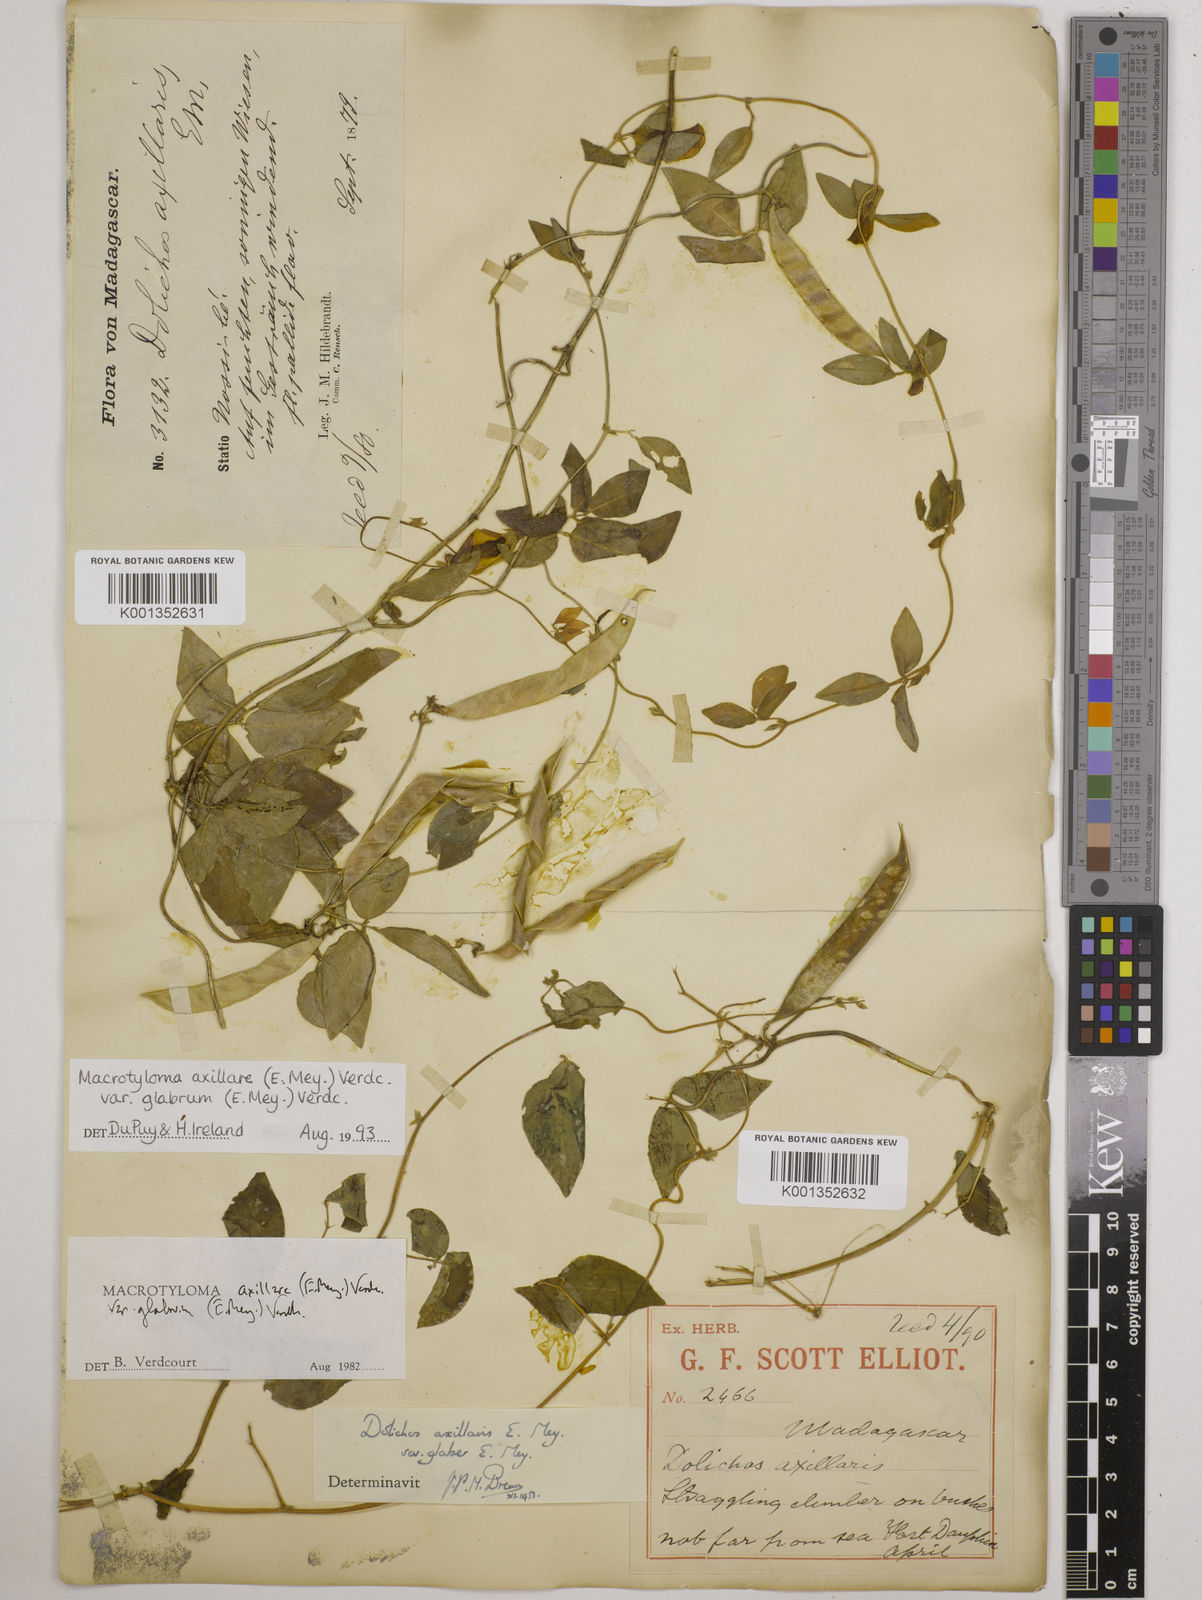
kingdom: Plantae
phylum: Tracheophyta
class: Magnoliopsida
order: Fabales
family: Fabaceae
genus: Macrotyloma
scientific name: Macrotyloma
